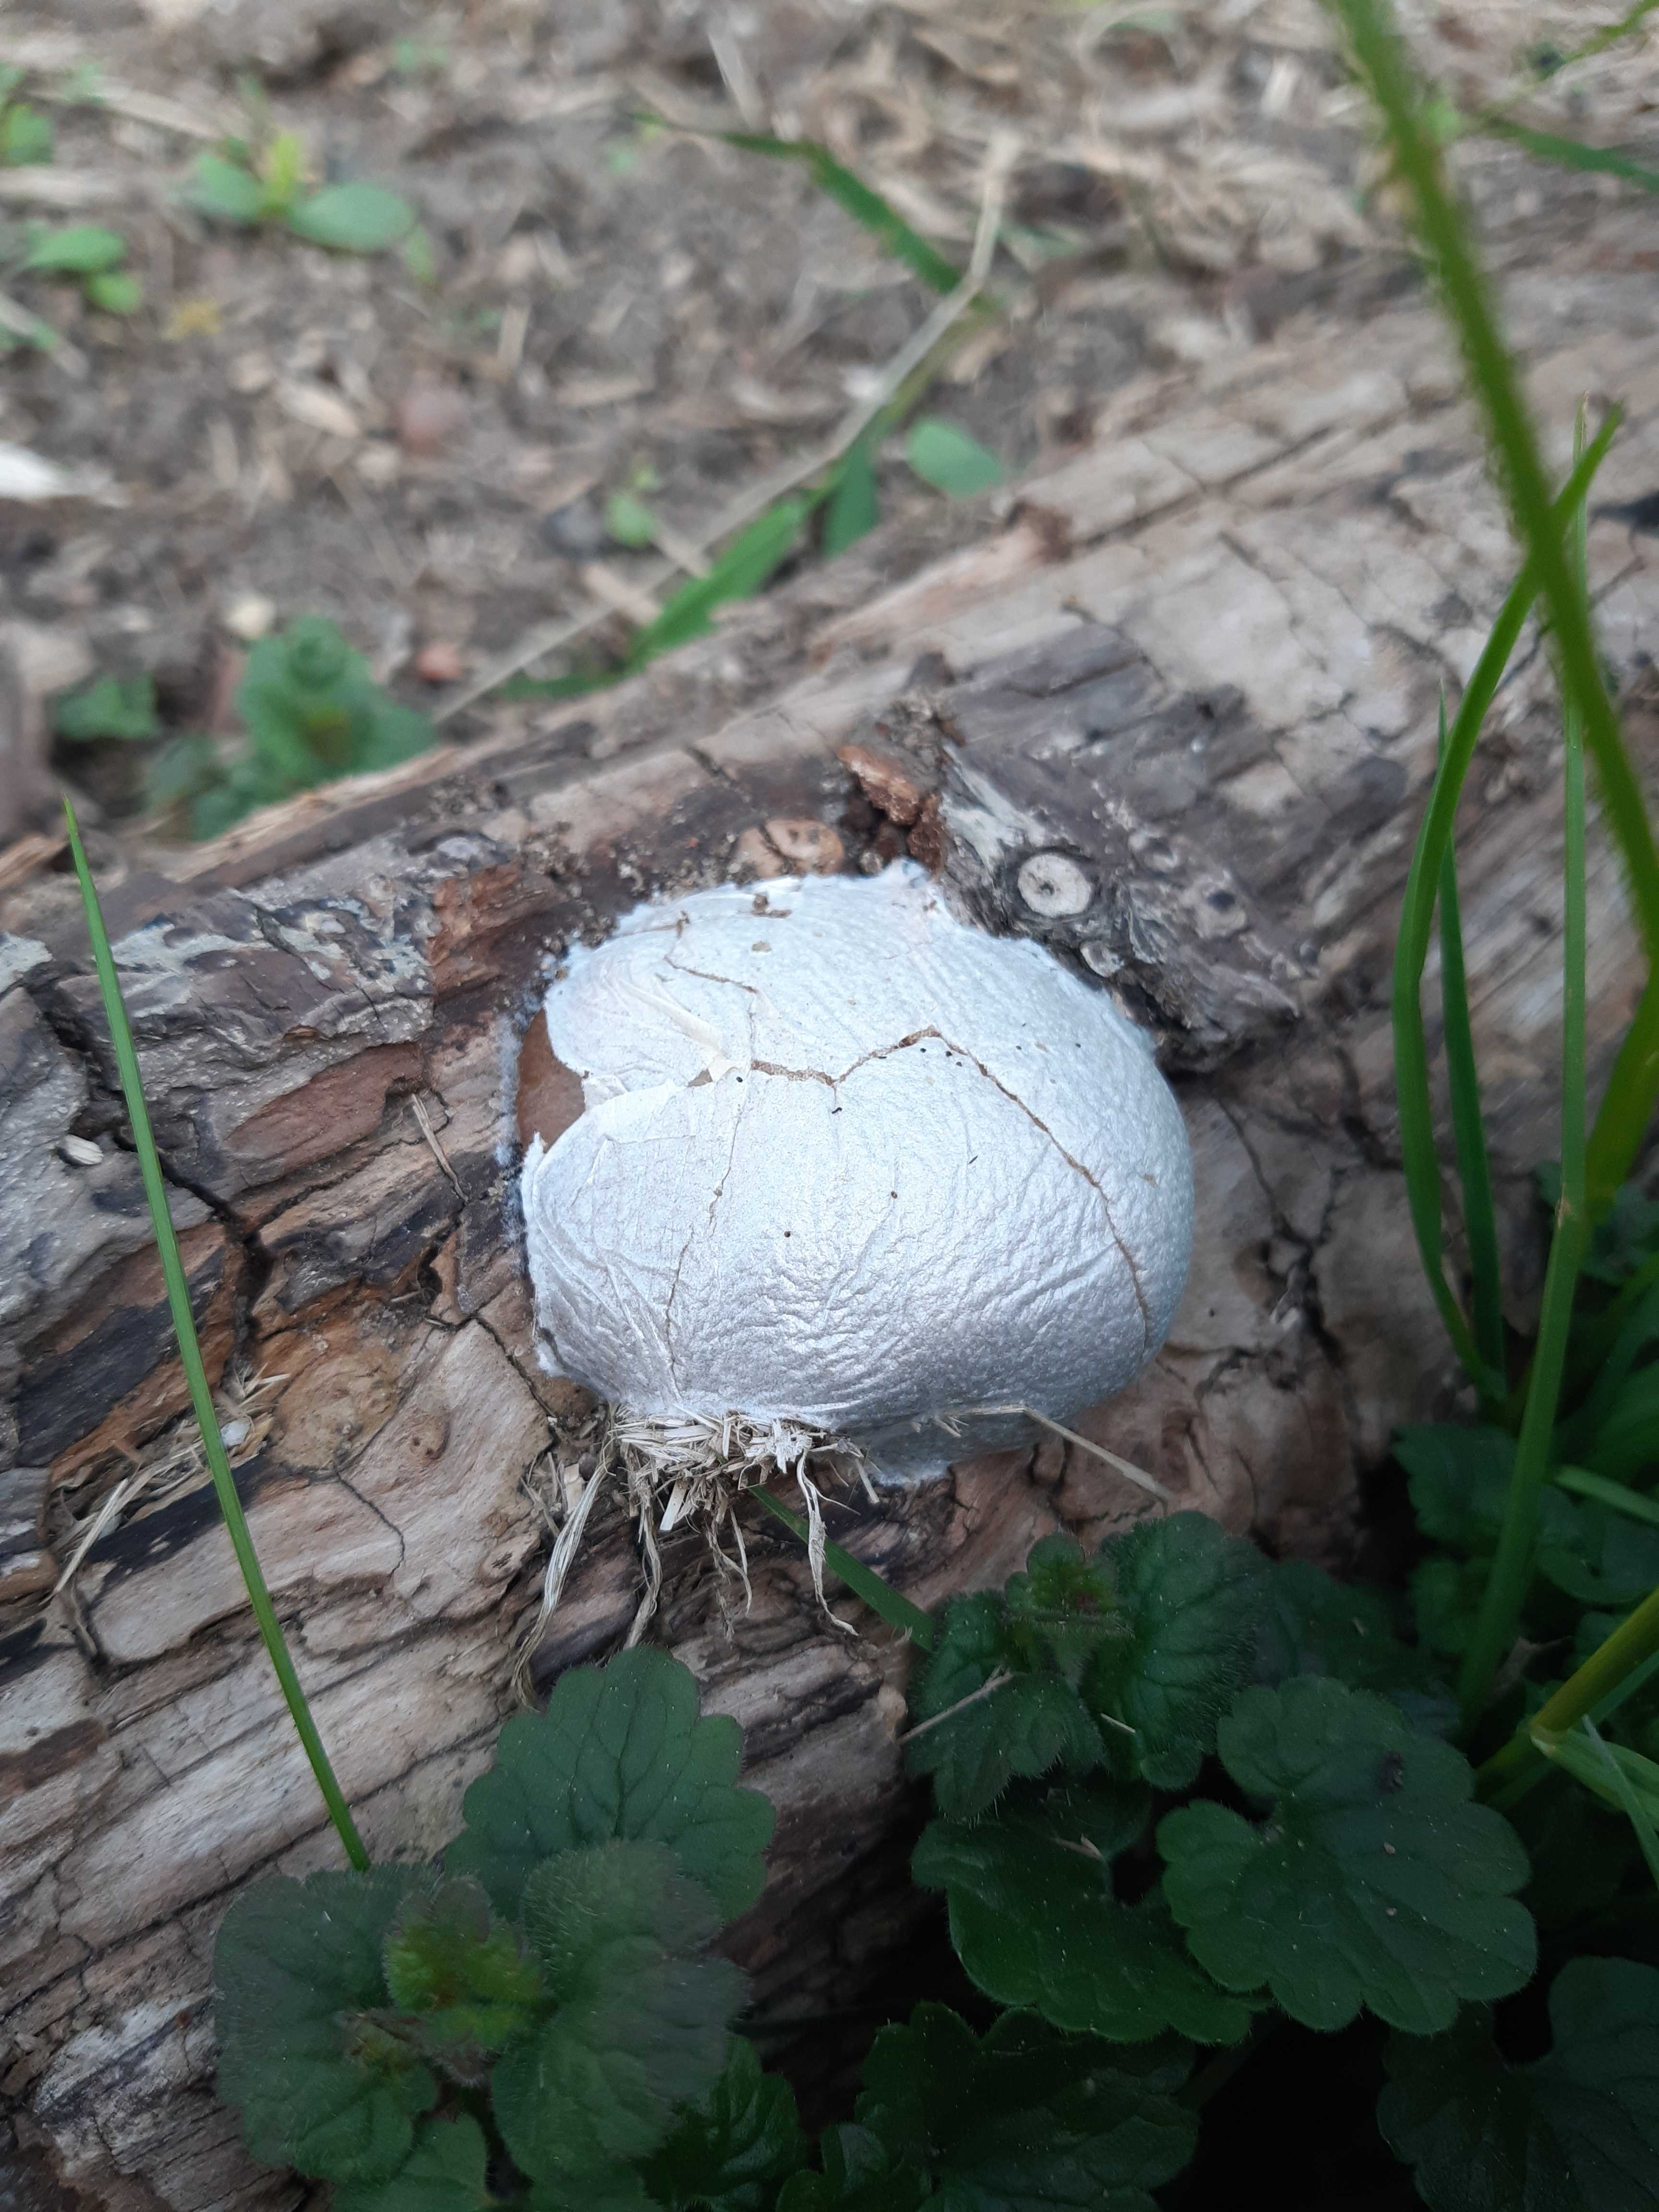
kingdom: Protozoa
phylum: Mycetozoa
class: Myxomycetes
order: Cribrariales
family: Tubiferaceae
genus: Reticularia
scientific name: Reticularia lycoperdon
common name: skinnende støvpude
